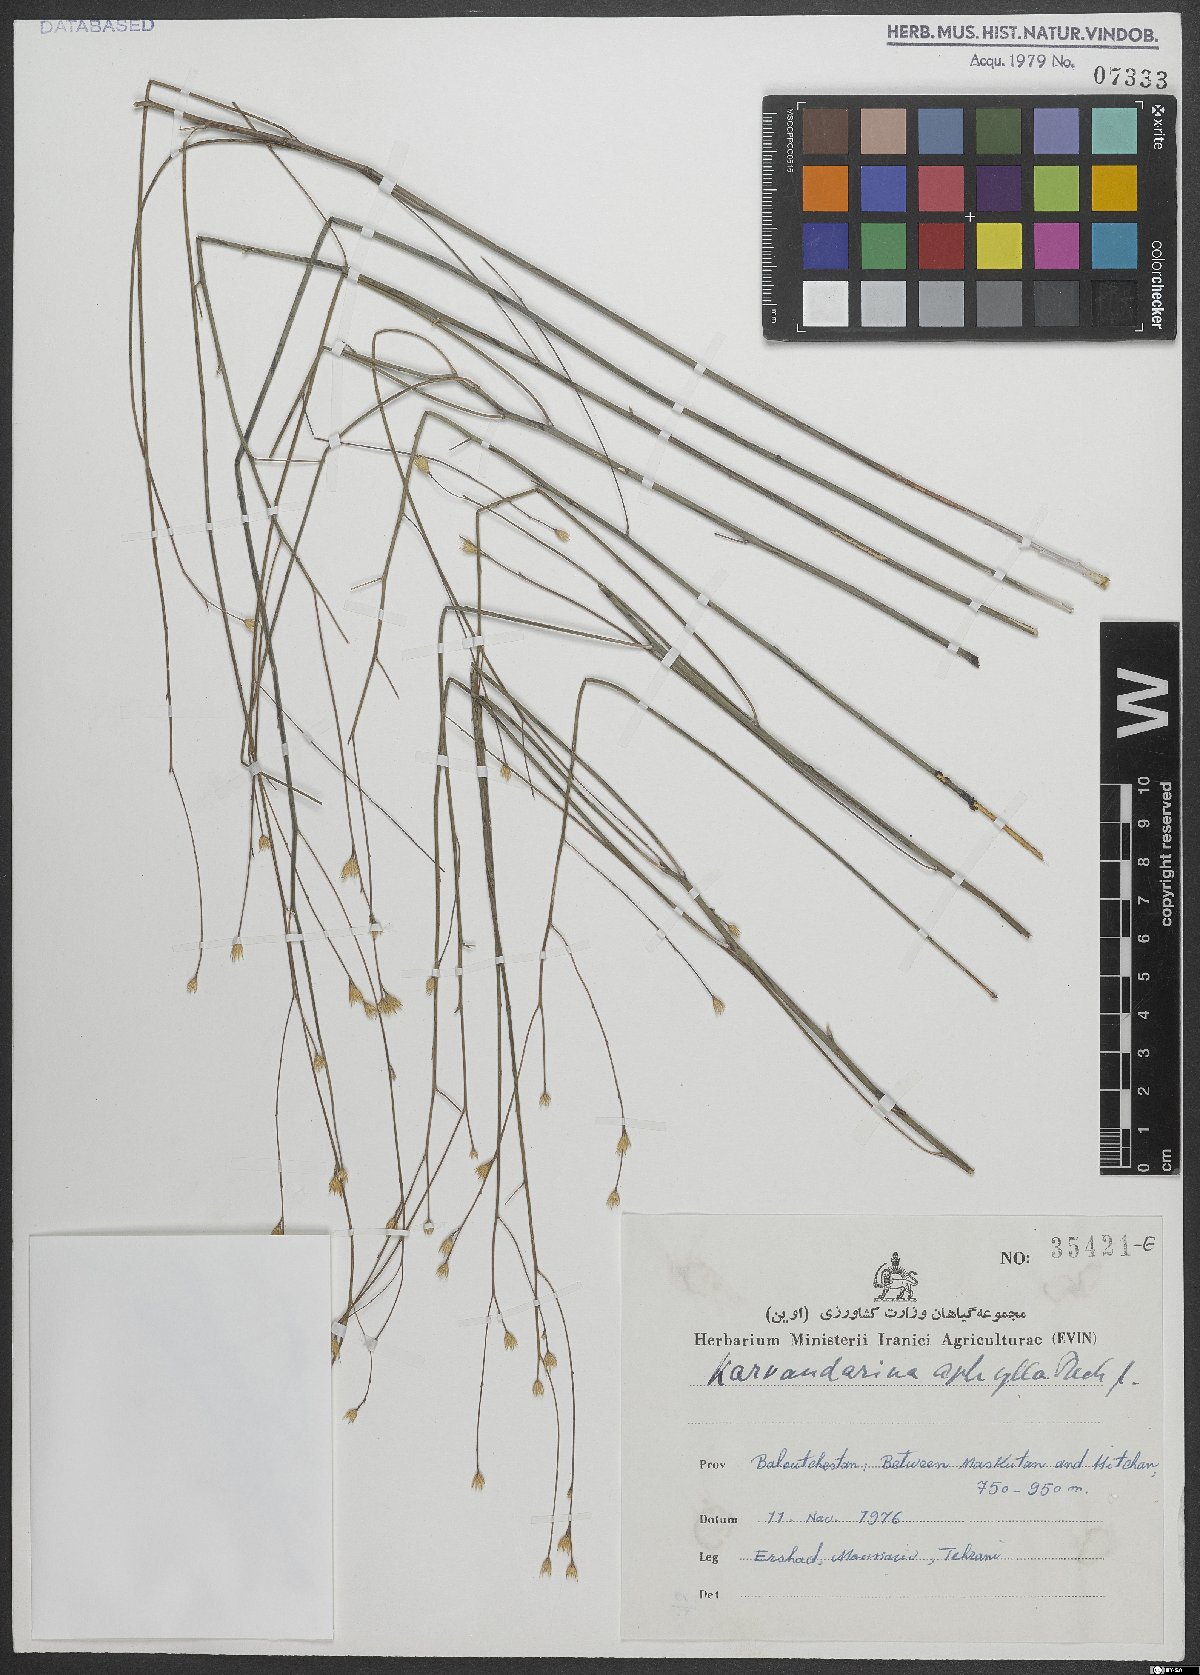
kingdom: Plantae
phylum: Tracheophyta
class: Magnoliopsida
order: Asterales
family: Asteraceae
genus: Karvandarina
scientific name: Karvandarina aphylla
